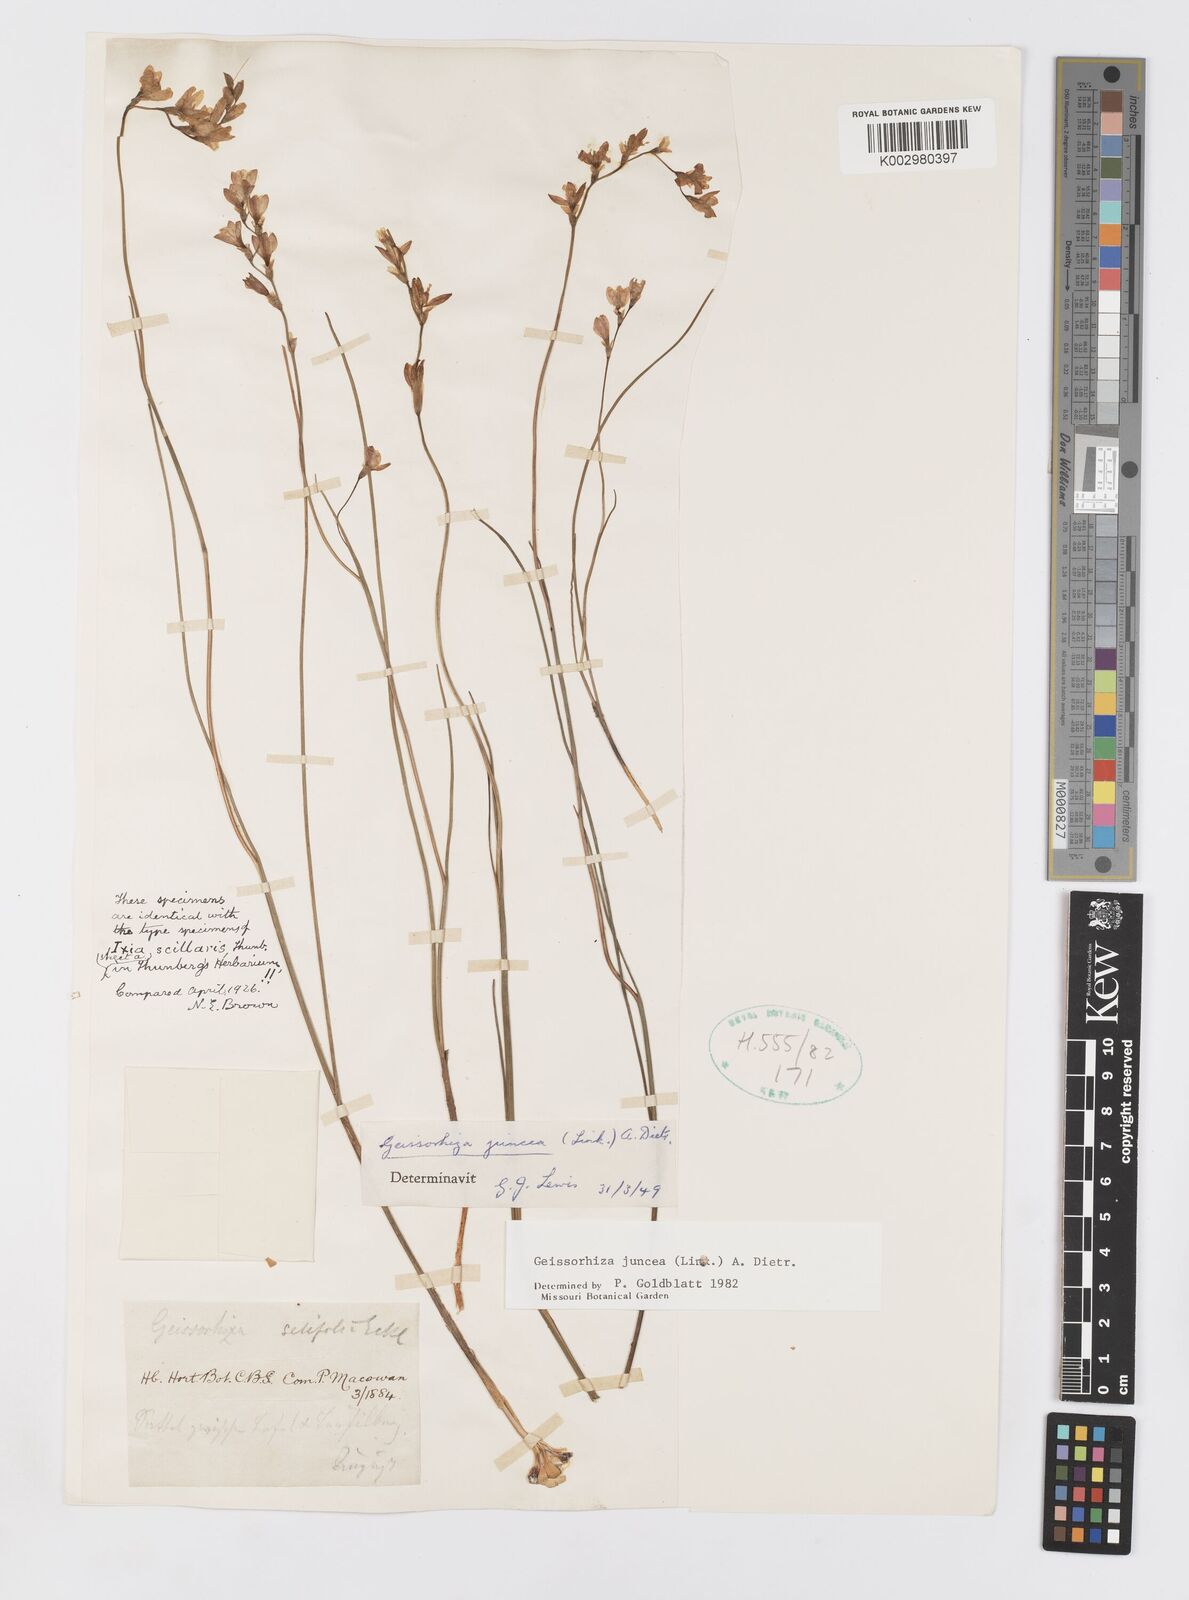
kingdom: Plantae
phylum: Tracheophyta
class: Liliopsida
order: Asparagales
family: Iridaceae
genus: Geissorhiza
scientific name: Geissorhiza juncea
